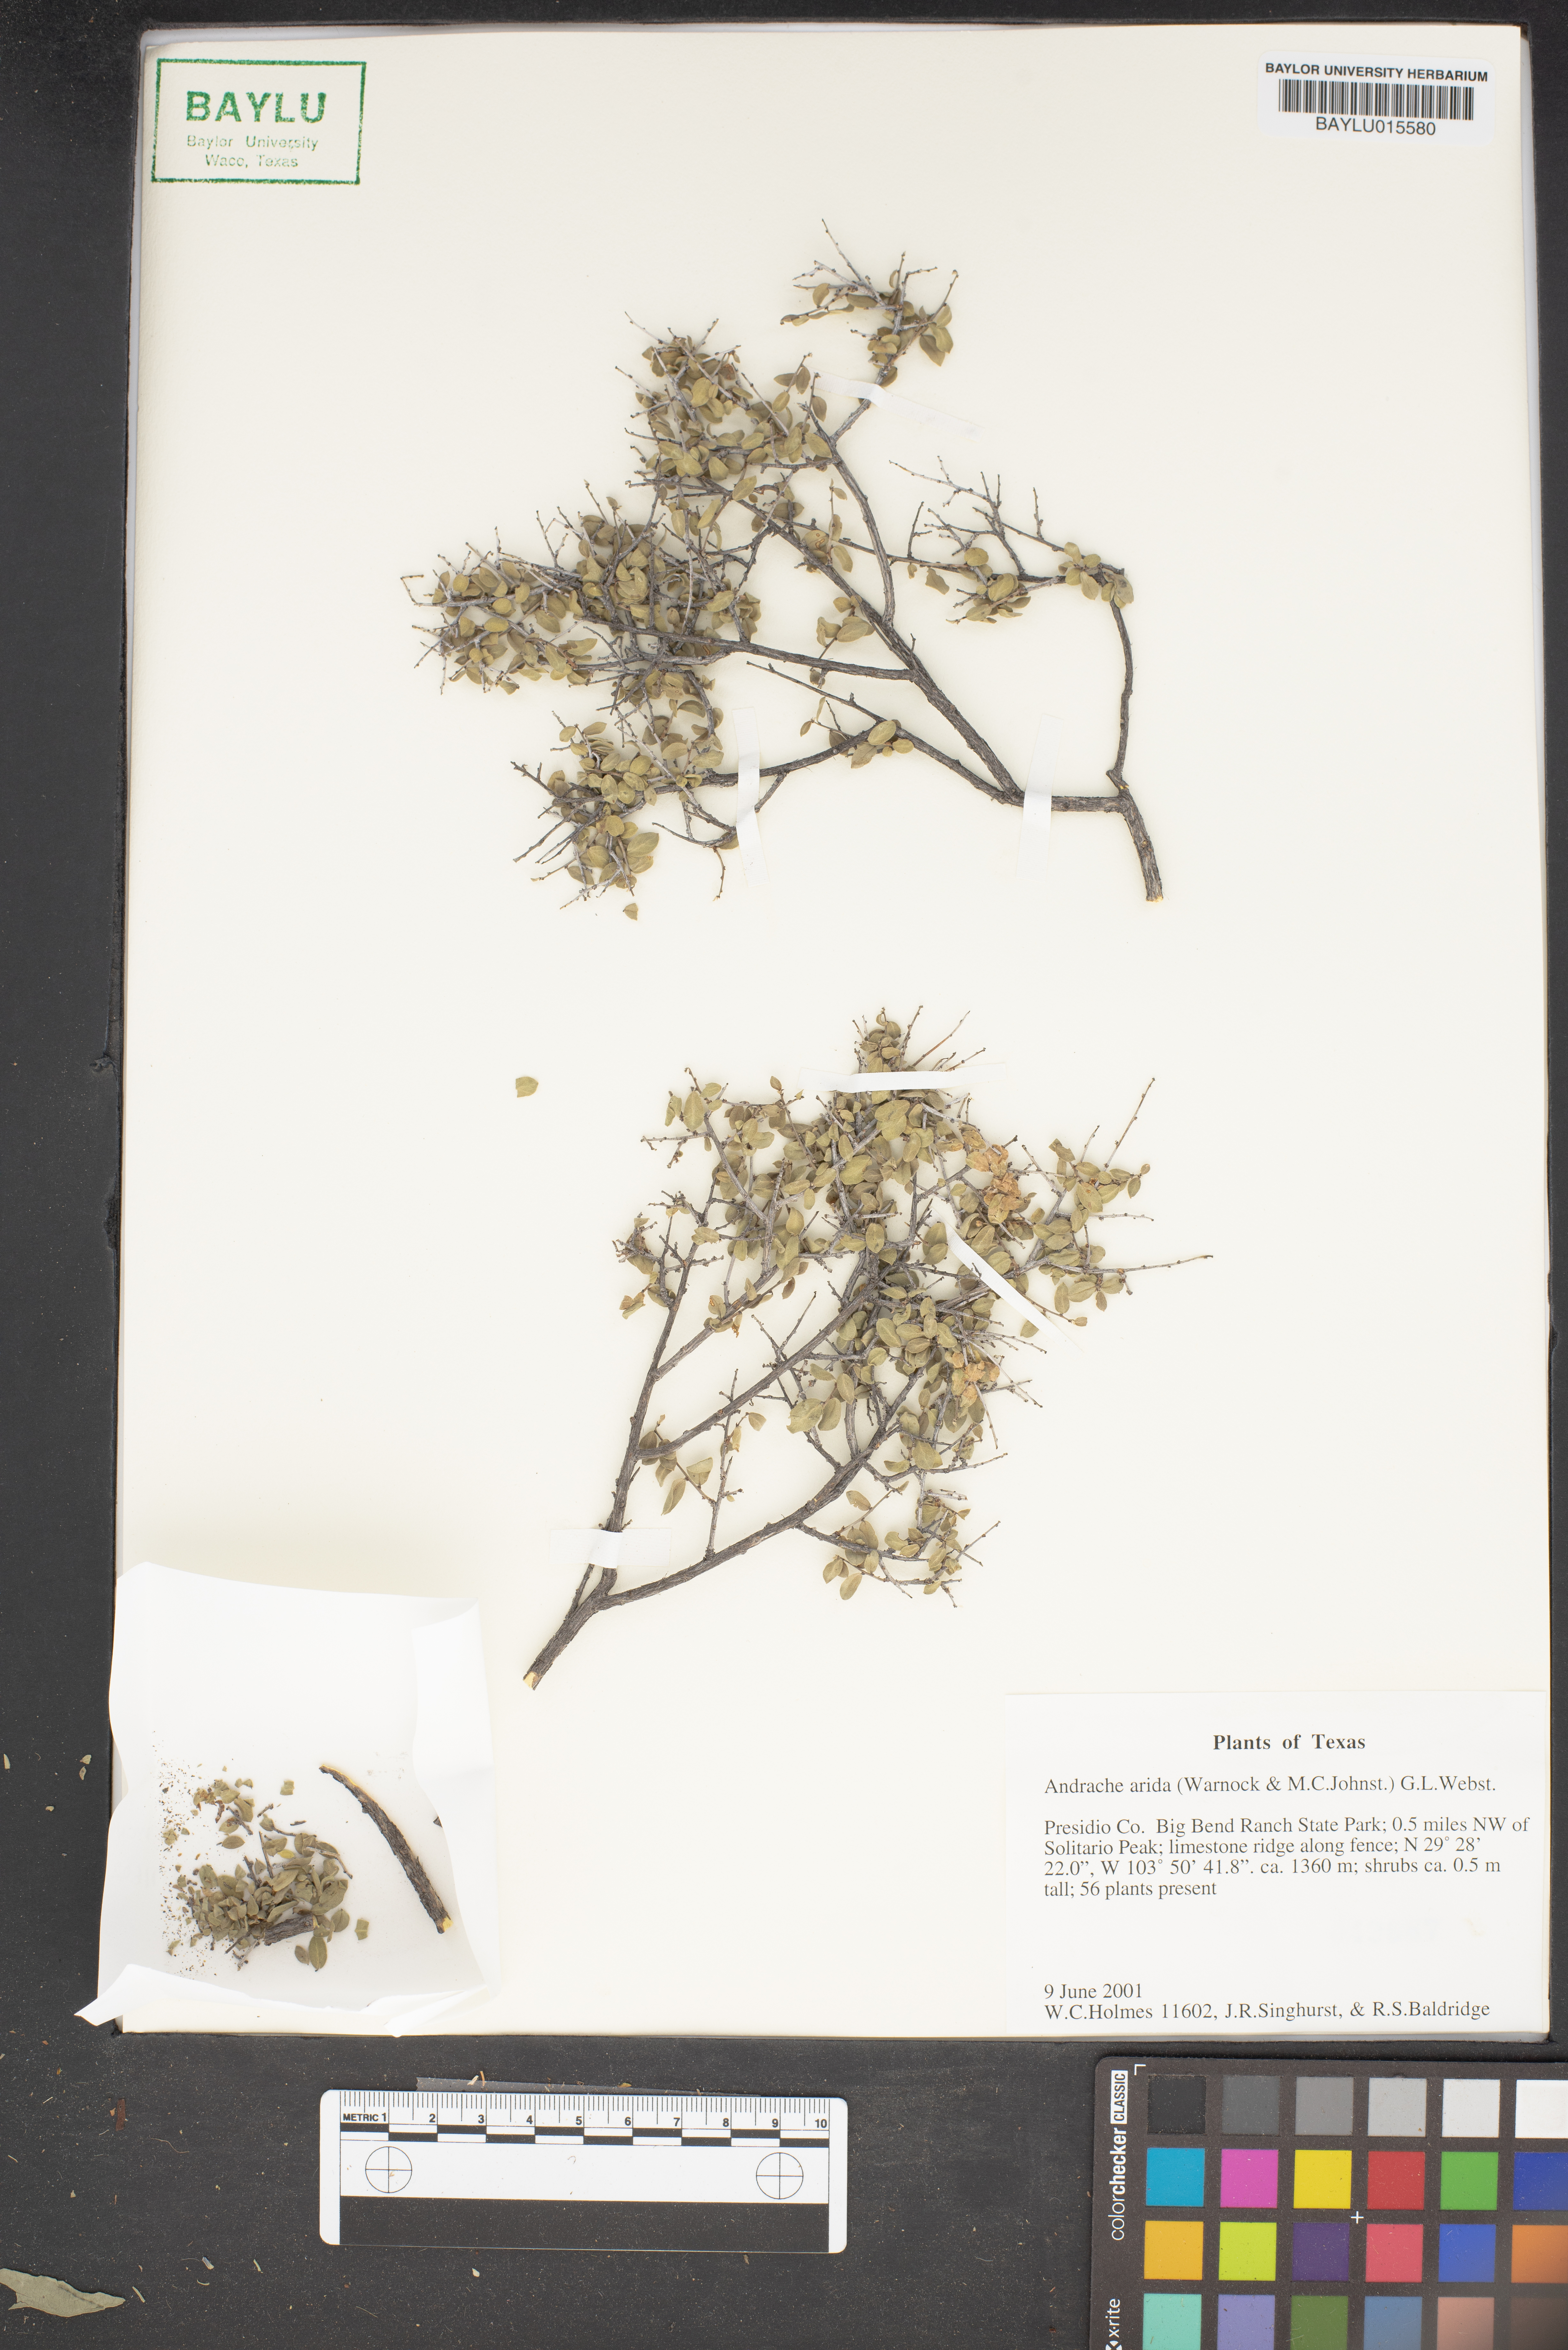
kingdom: Plantae
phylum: Tracheophyta
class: Magnoliopsida
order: Malpighiales
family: Phyllanthaceae
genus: Phyllanthopsis
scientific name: Phyllanthopsis arida
